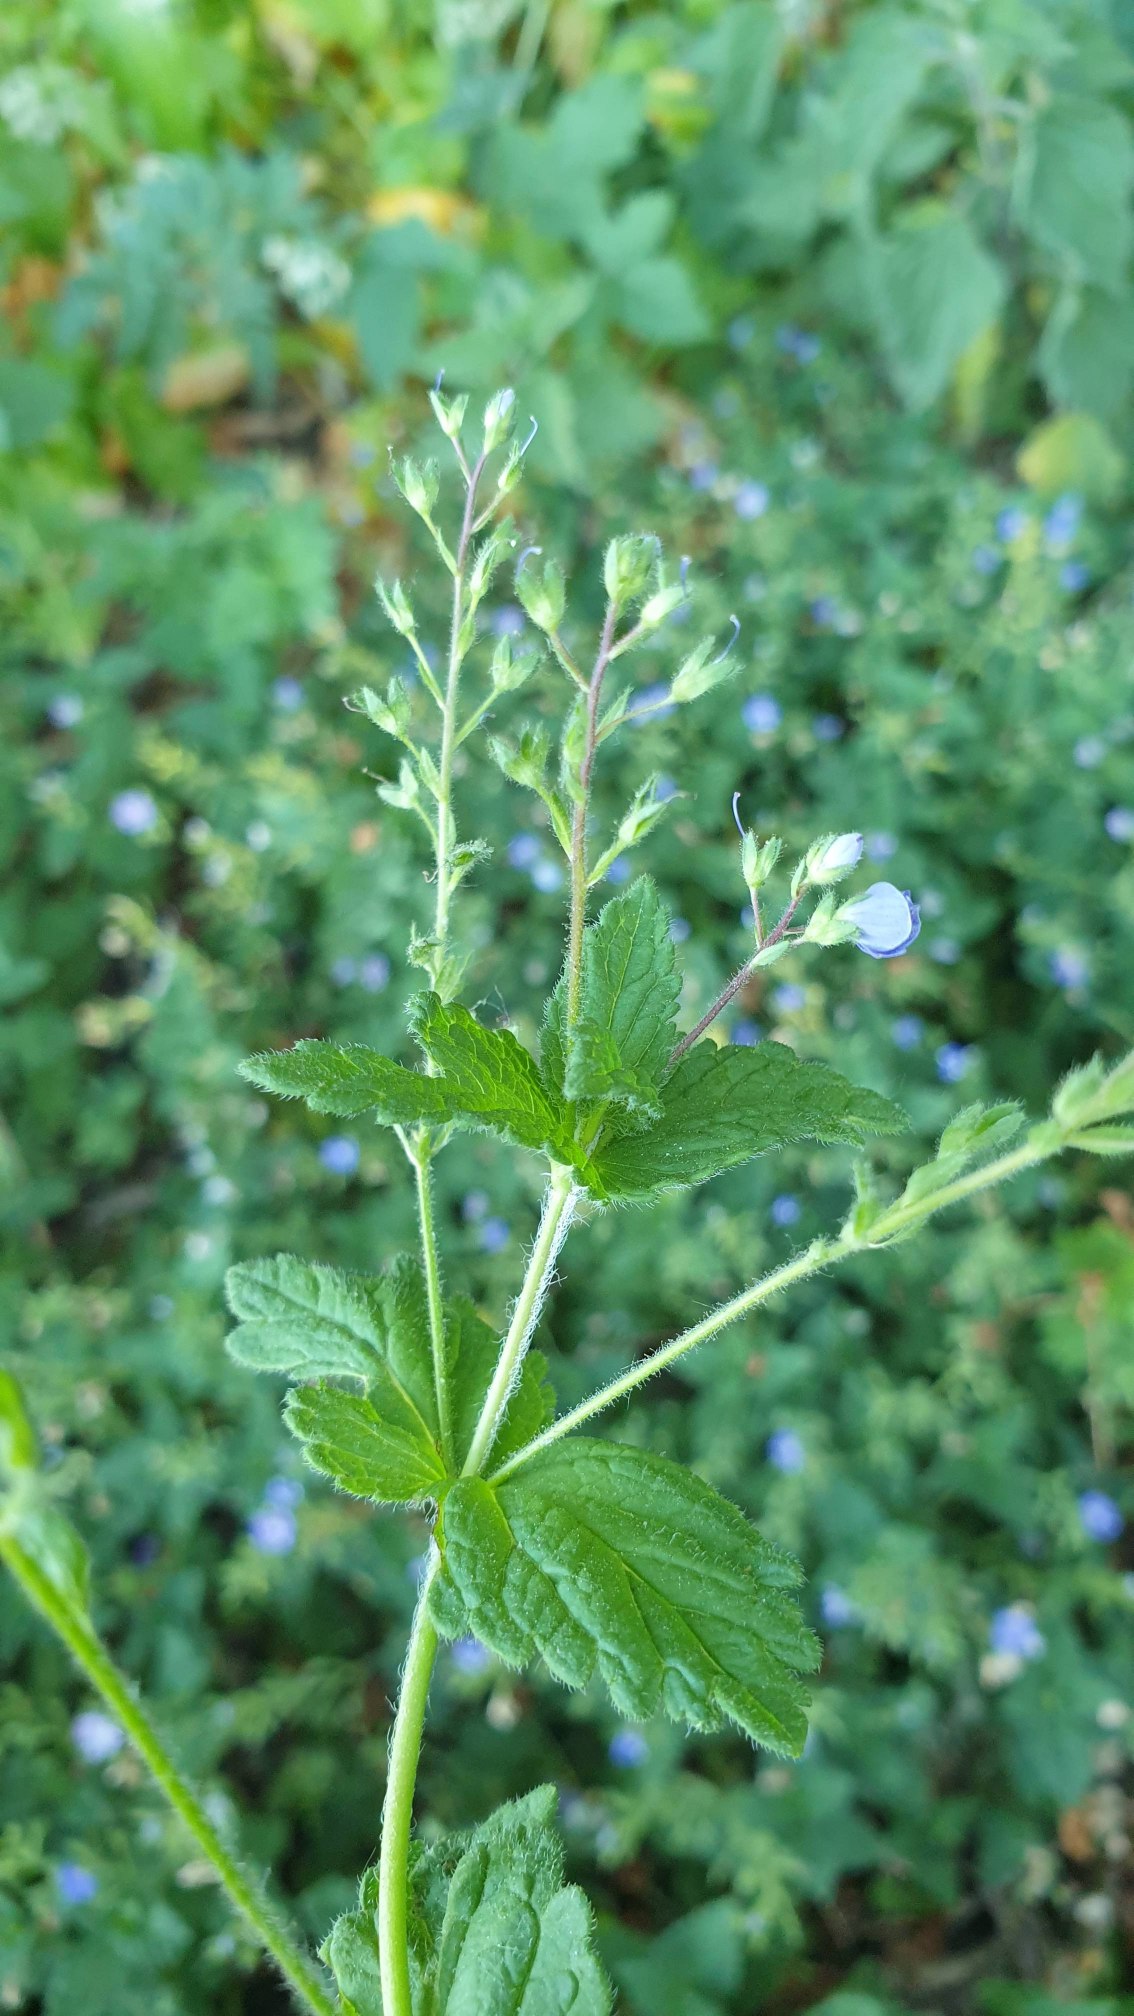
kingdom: Plantae
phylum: Tracheophyta
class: Magnoliopsida
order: Lamiales
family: Plantaginaceae
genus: Veronica
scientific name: Veronica chamaedrys
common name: Tveskægget ærenpris
